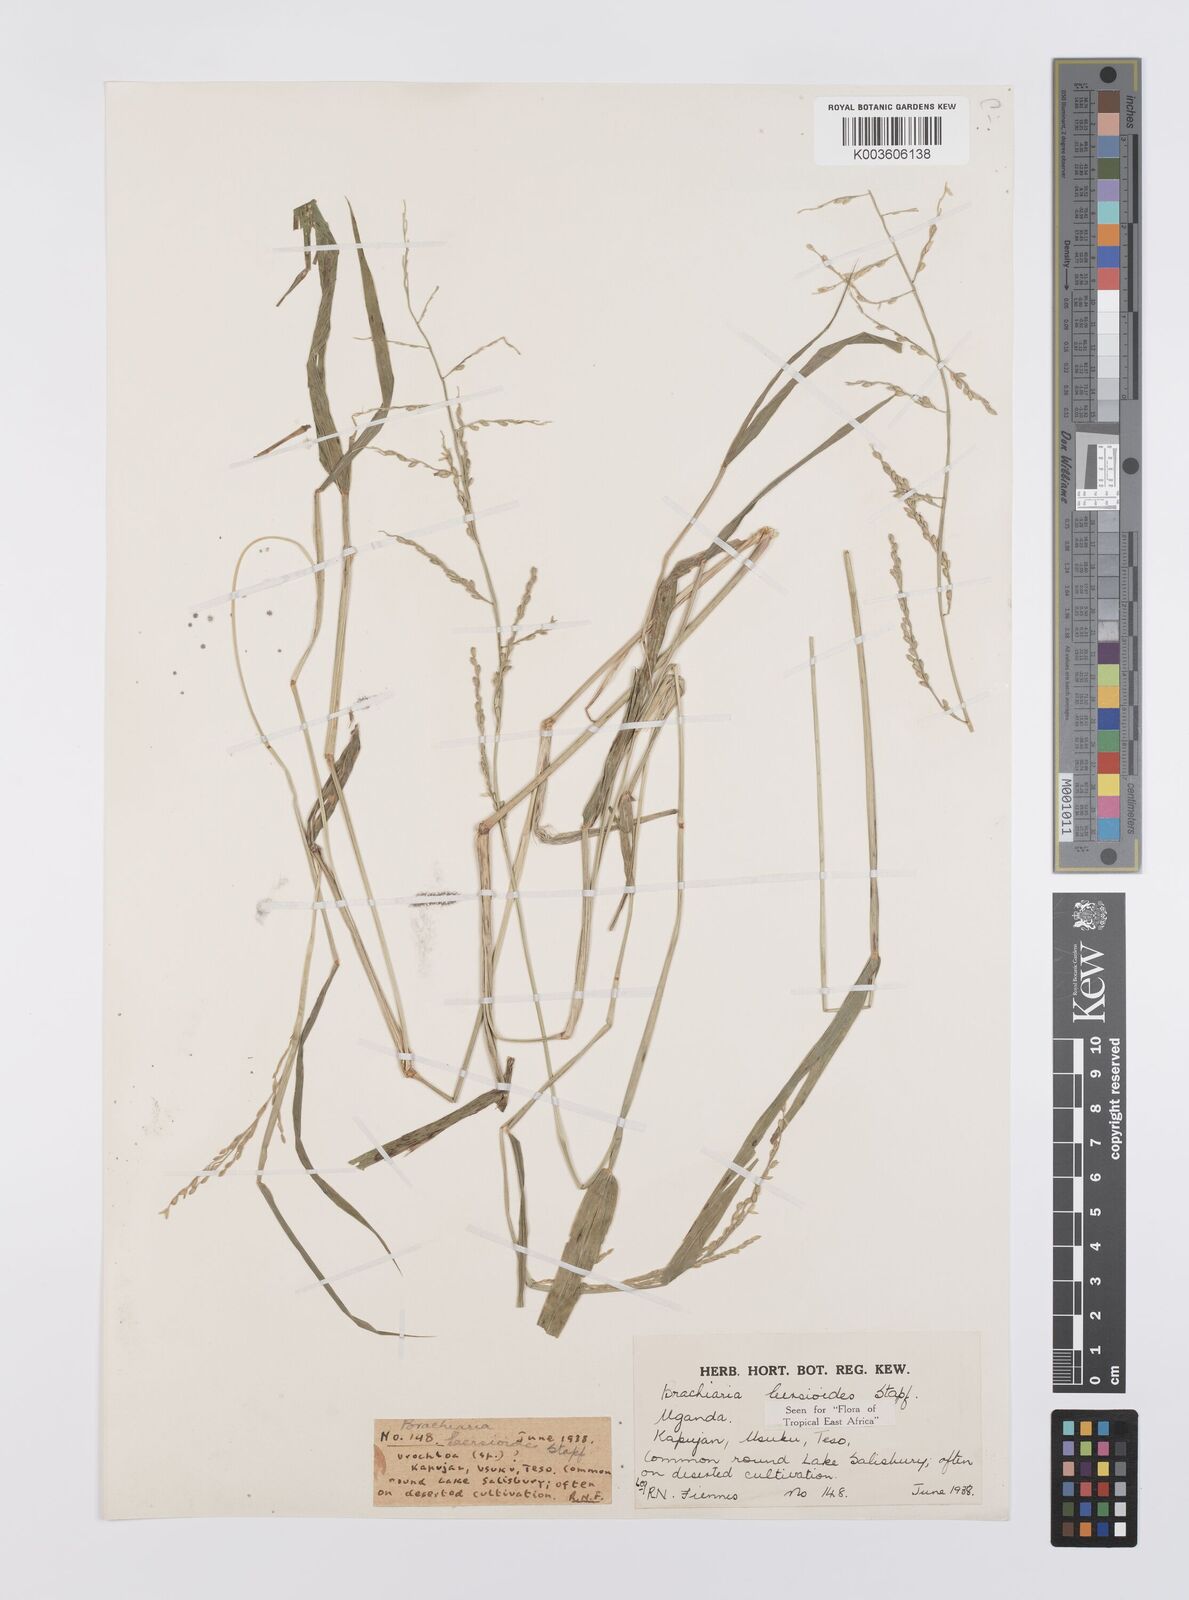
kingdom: Plantae
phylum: Tracheophyta
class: Liliopsida
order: Poales
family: Poaceae
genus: Urochloa
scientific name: Urochloa leersioides
